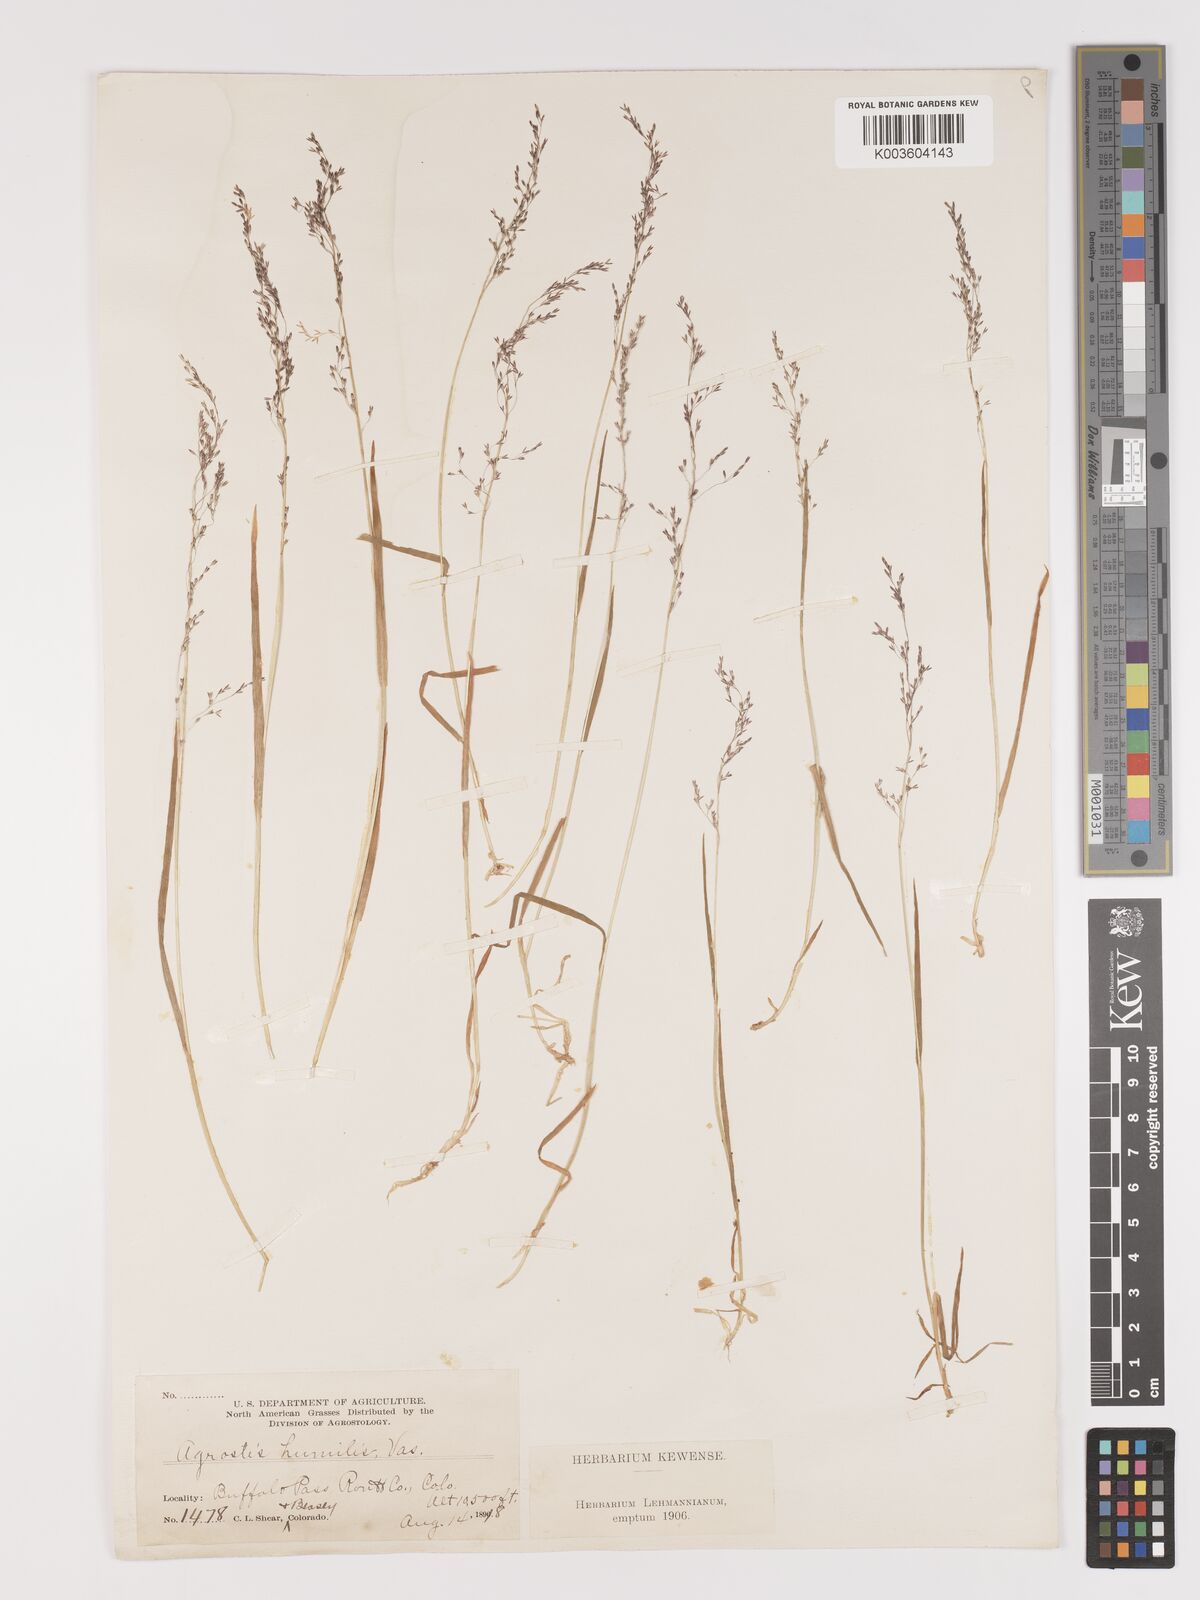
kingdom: Plantae
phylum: Tracheophyta
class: Liliopsida
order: Poales
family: Poaceae
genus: Podagrostis
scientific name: Podagrostis humilis
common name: Thurber's bentgrass
